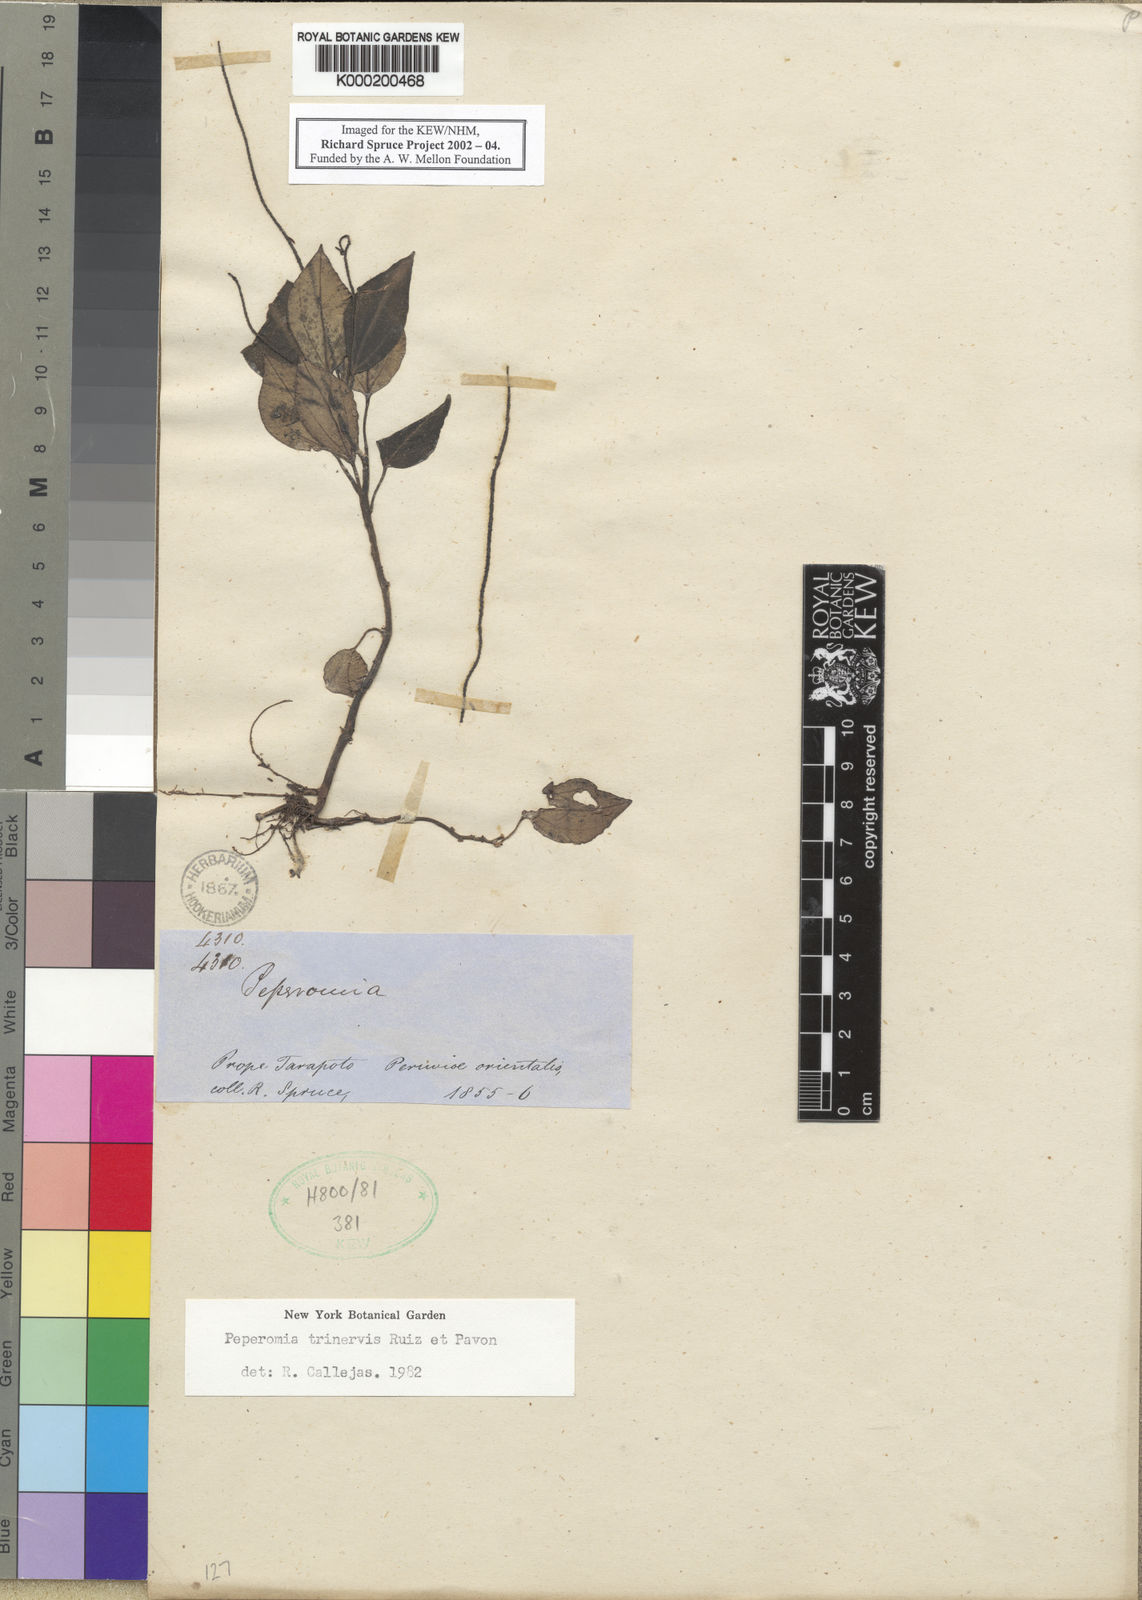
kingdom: Plantae
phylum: Tracheophyta
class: Magnoliopsida
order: Piperales
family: Piperaceae
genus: Peperomia
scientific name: Peperomia trinervis
